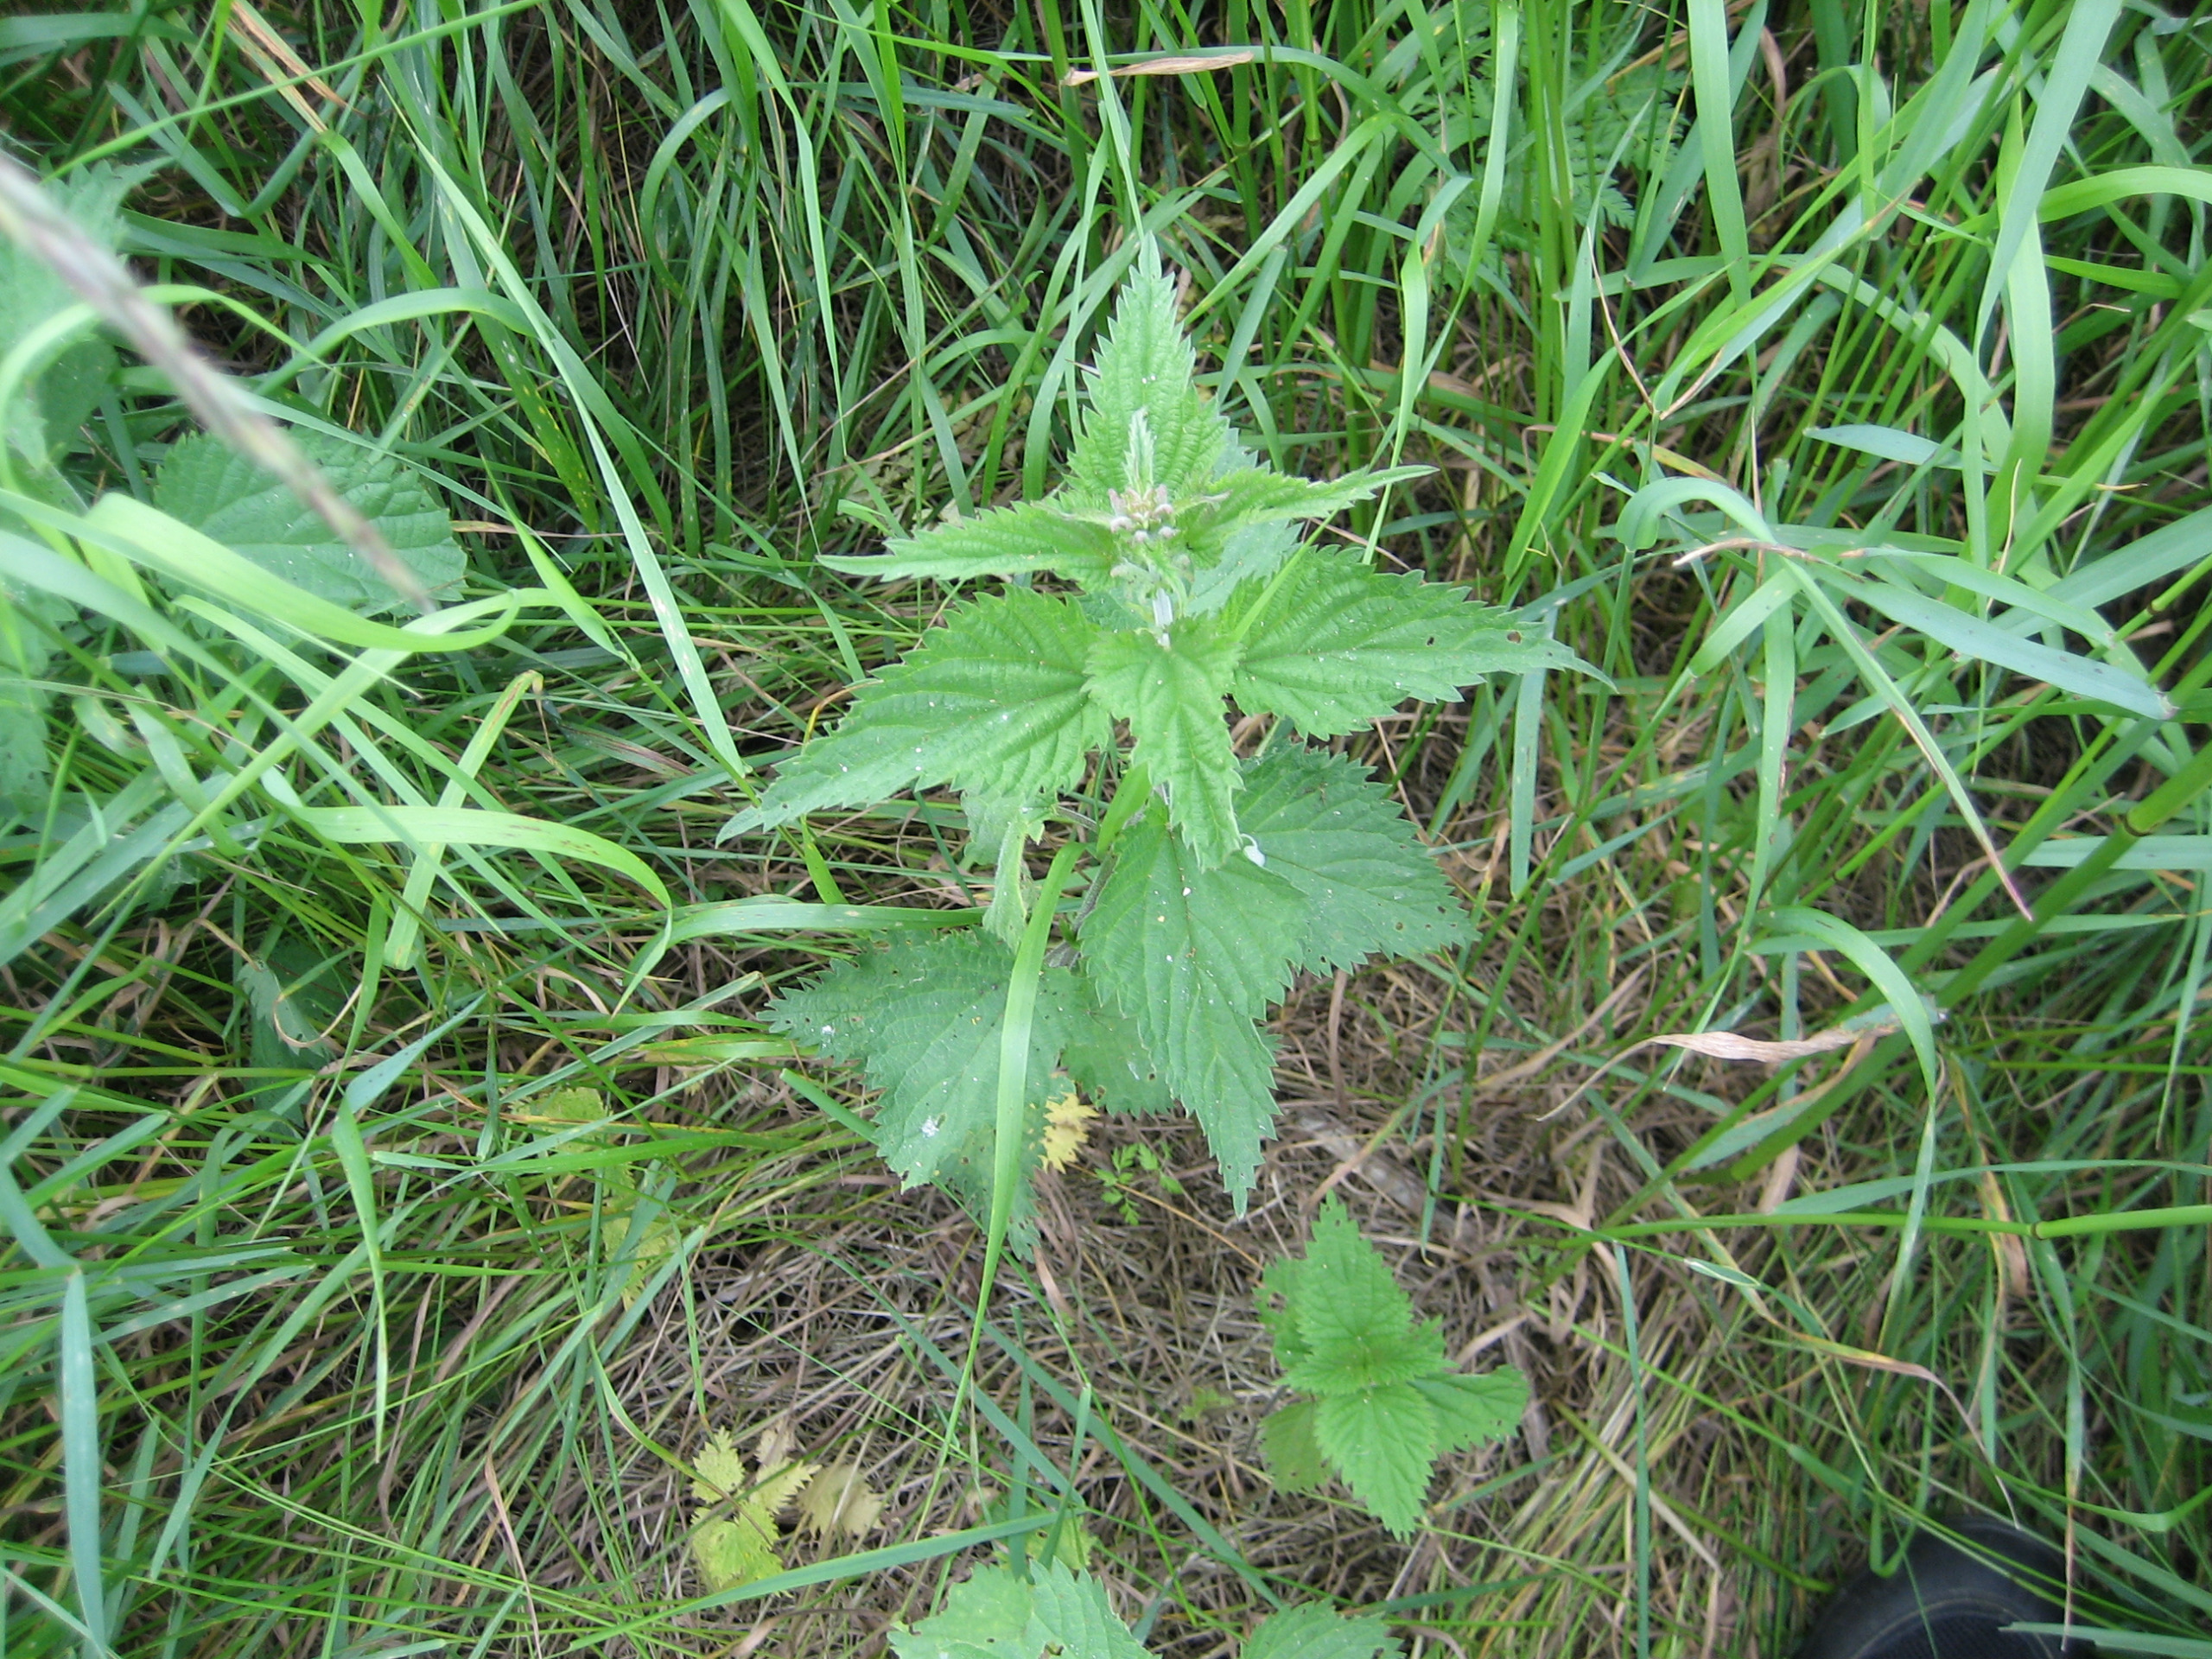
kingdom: Plantae
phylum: Tracheophyta
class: Magnoliopsida
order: Rosales
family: Urticaceae
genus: Urtica
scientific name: Urtica dioica
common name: Stor nælde
